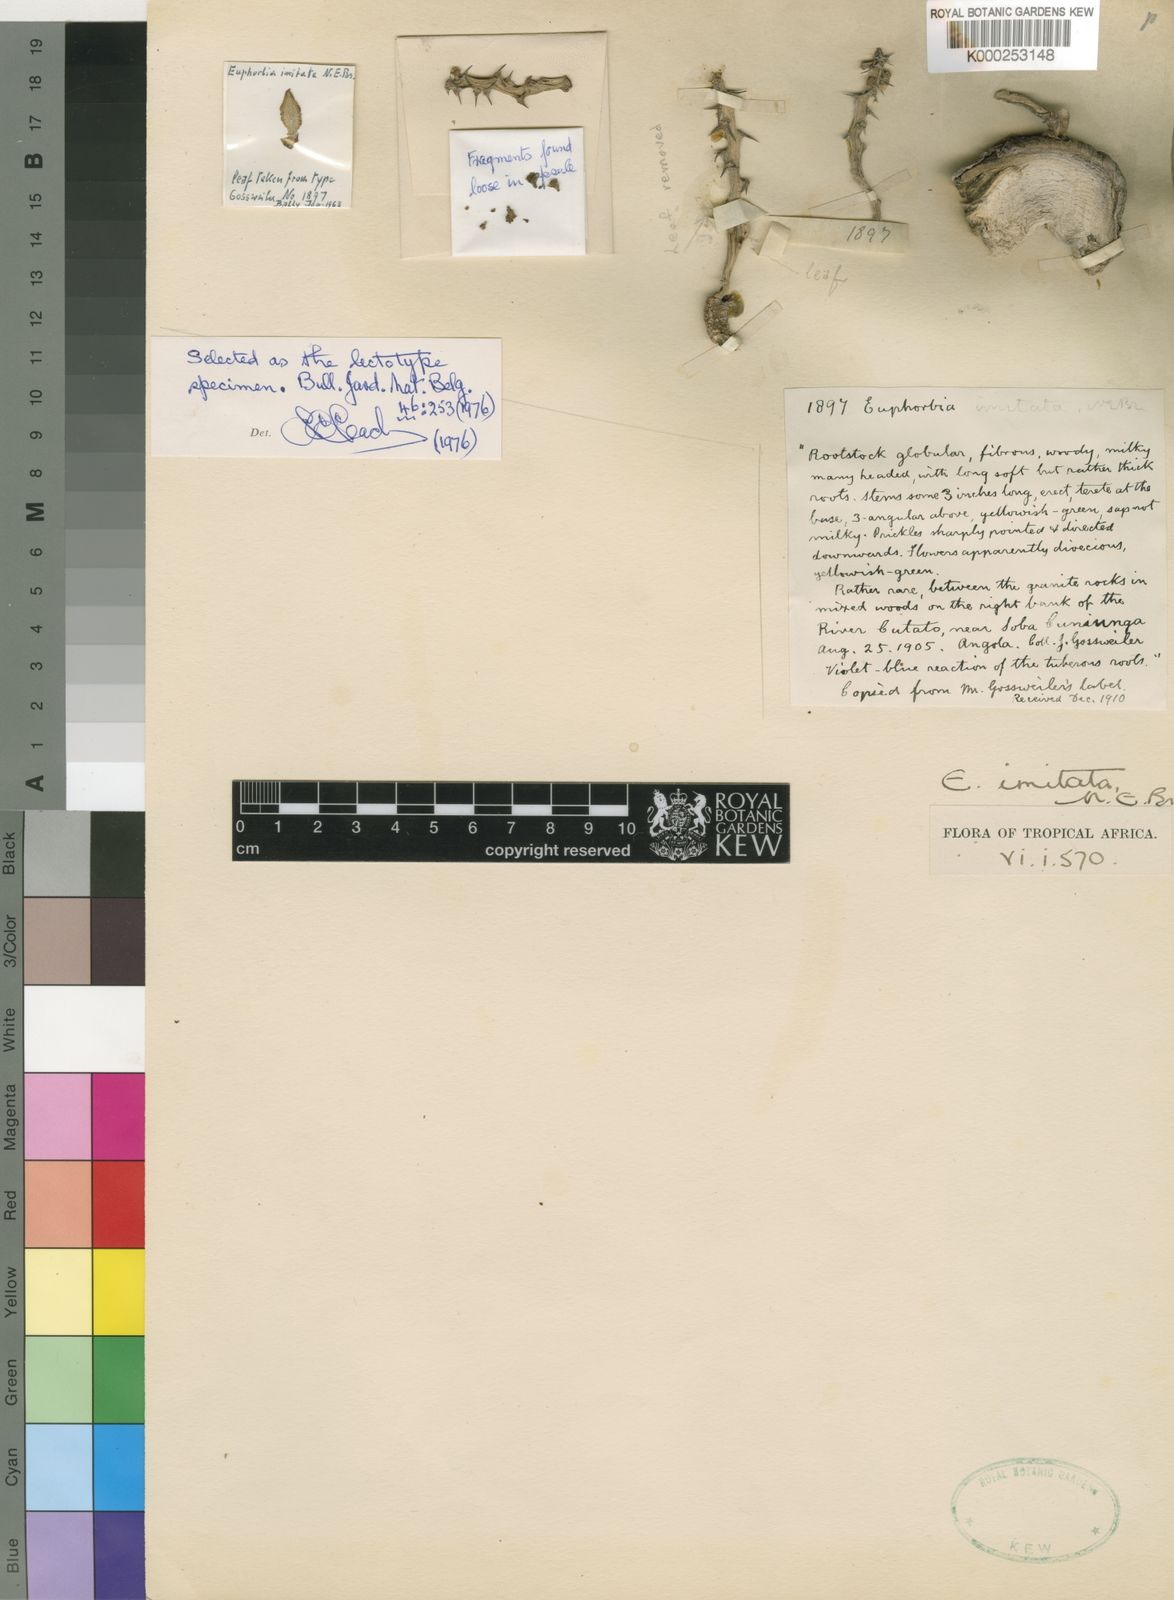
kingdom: Plantae
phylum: Tracheophyta
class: Magnoliopsida
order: Malpighiales
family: Euphorbiaceae
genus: Euphorbia
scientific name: Euphorbia imitata
